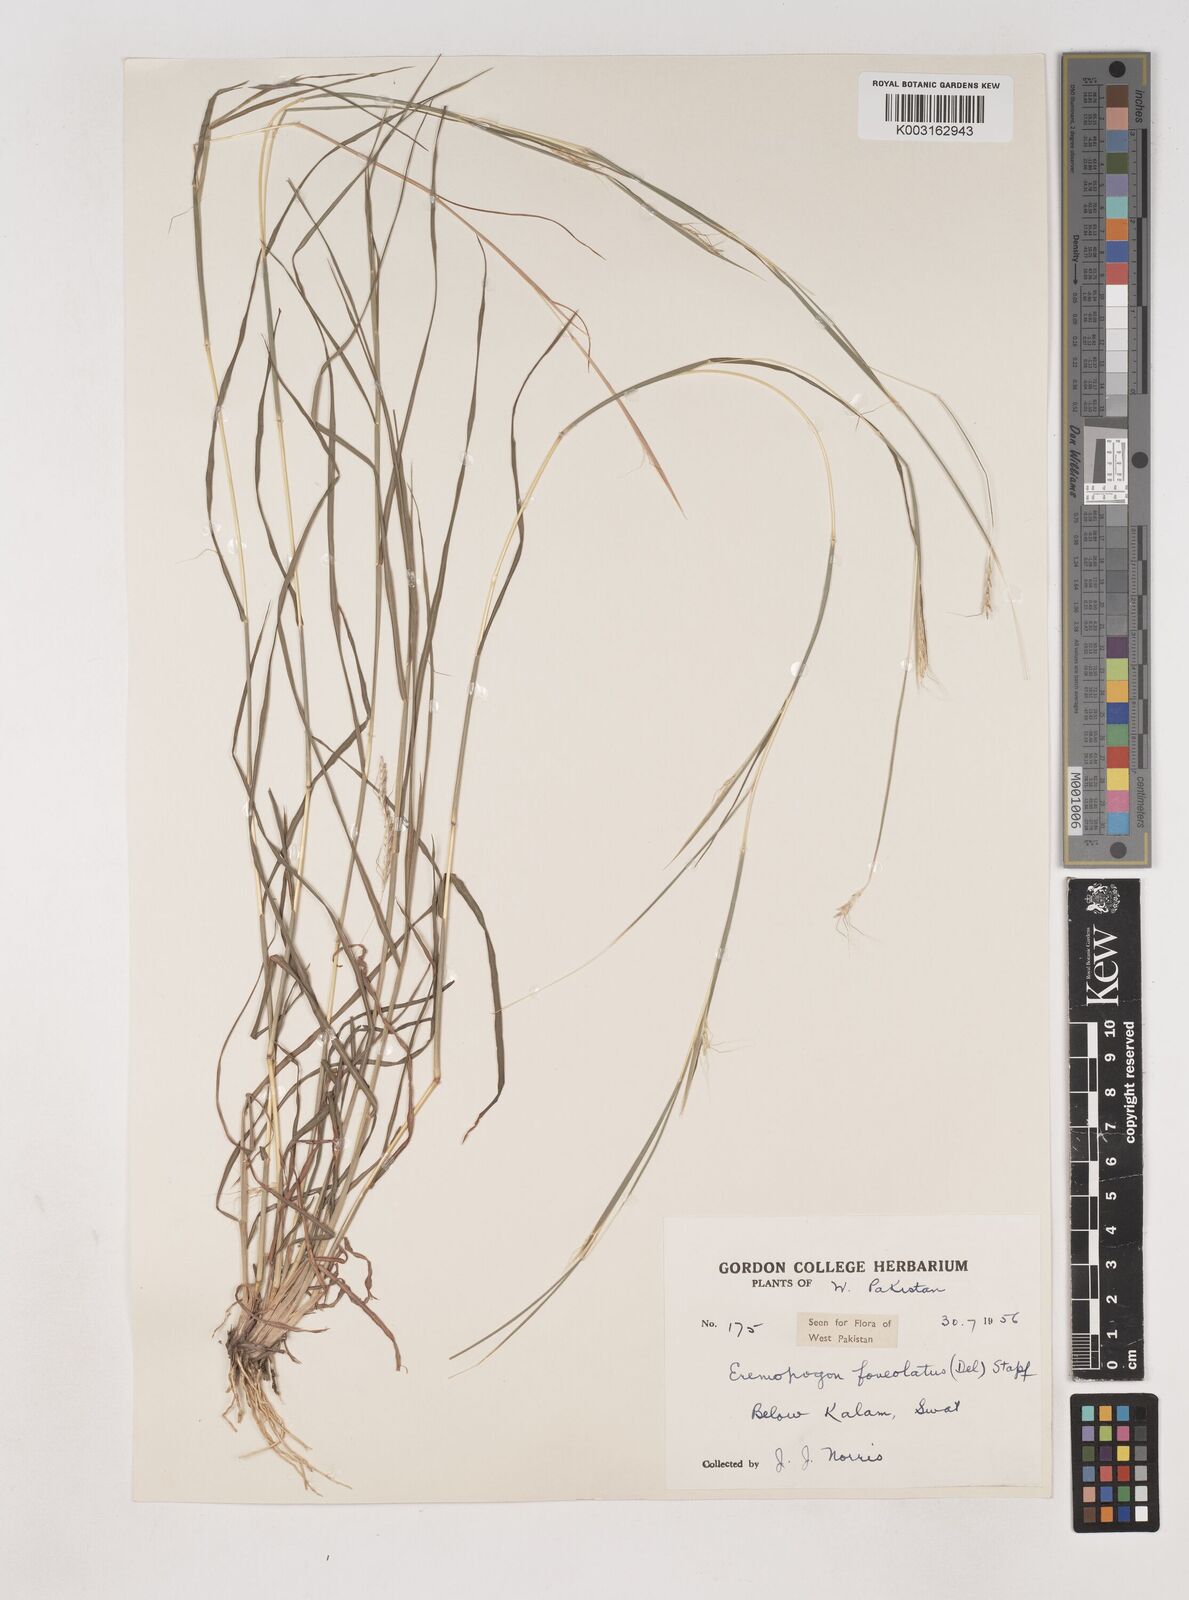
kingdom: Plantae
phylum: Tracheophyta
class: Liliopsida
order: Poales
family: Poaceae
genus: Dichanthium
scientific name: Dichanthium
